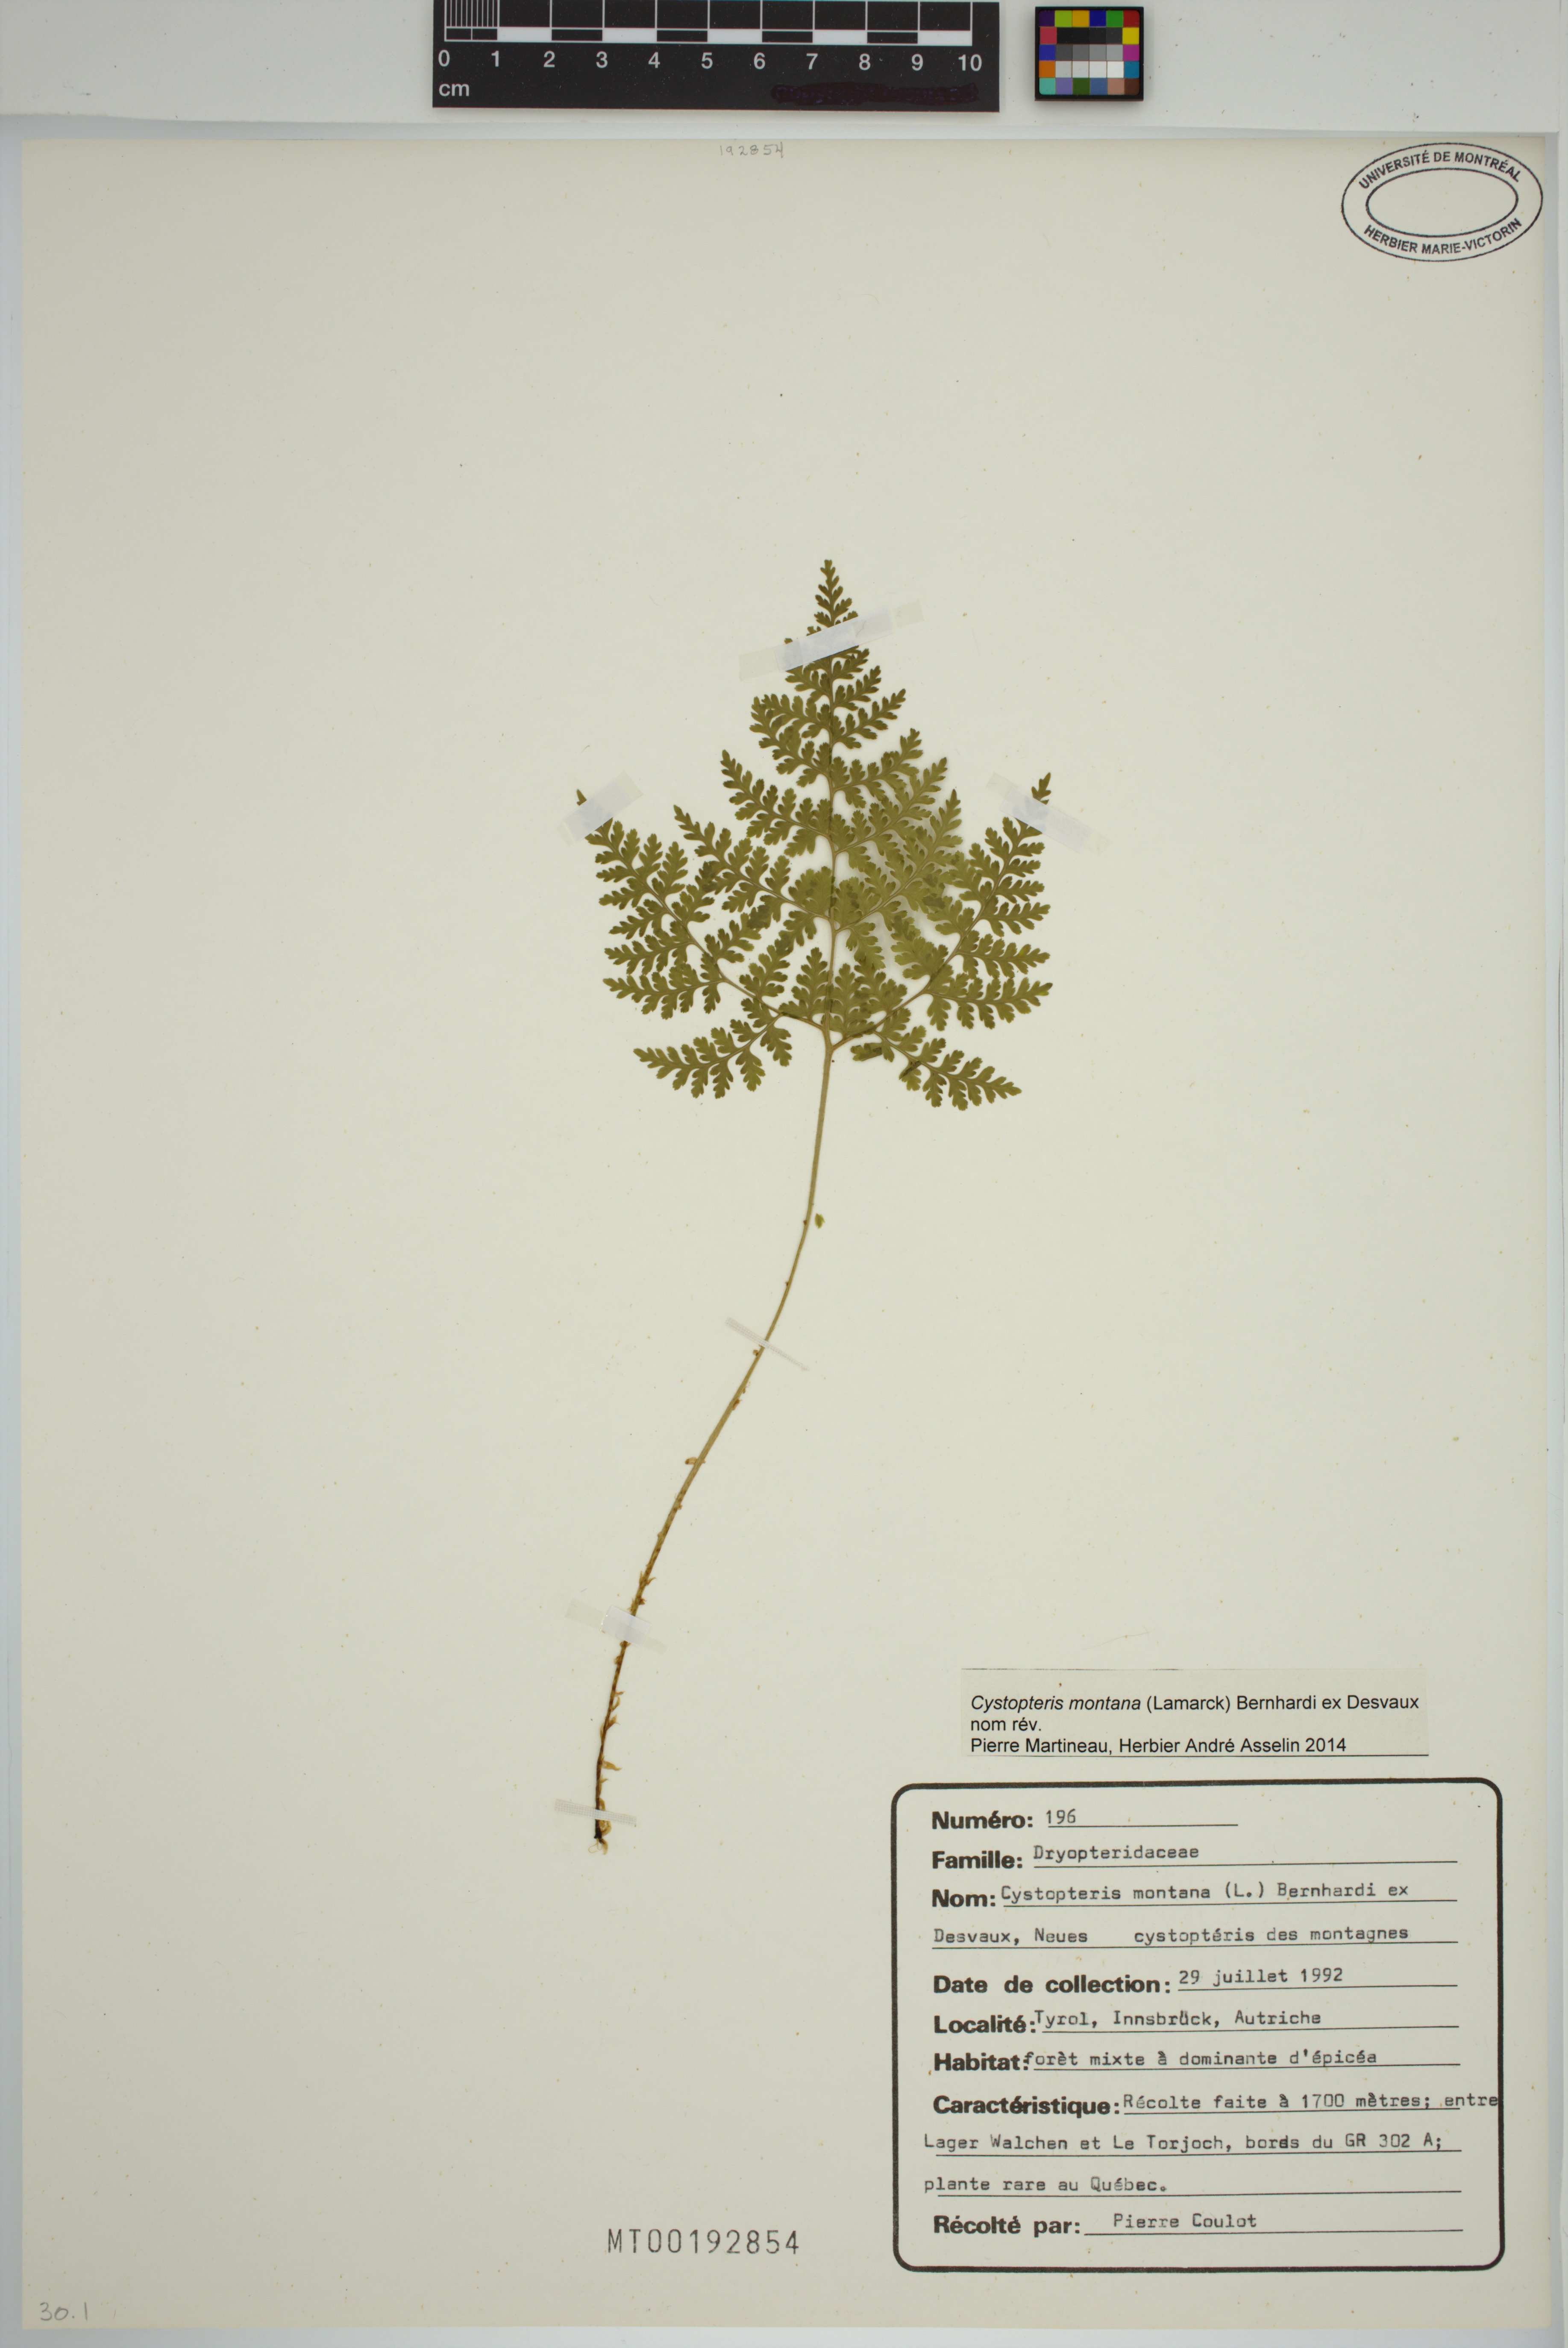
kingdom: Plantae
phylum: Tracheophyta
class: Polypodiopsida
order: Polypodiales
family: Cystopteridaceae
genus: Cystopteris
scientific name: Cystopteris montana
